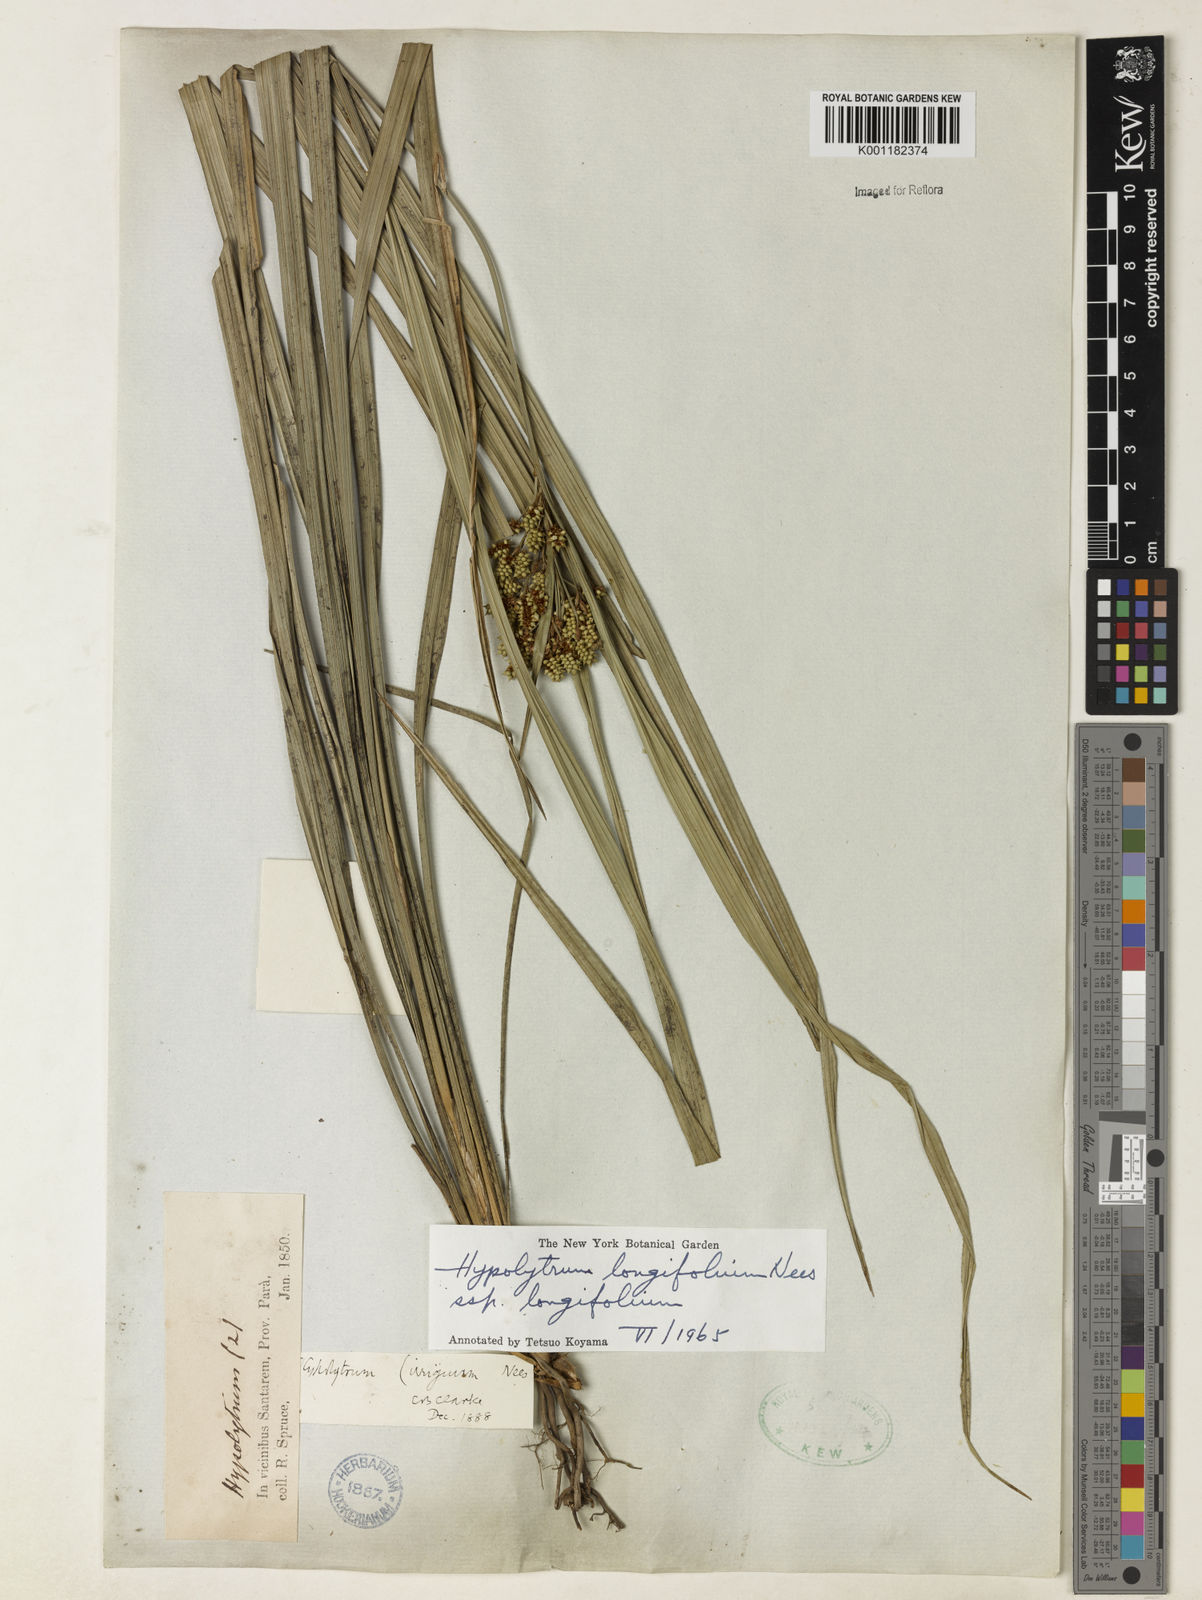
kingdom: Plantae
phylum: Tracheophyta
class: Liliopsida
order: Poales
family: Cyperaceae
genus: Hypolytrum
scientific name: Hypolytrum longifolium
